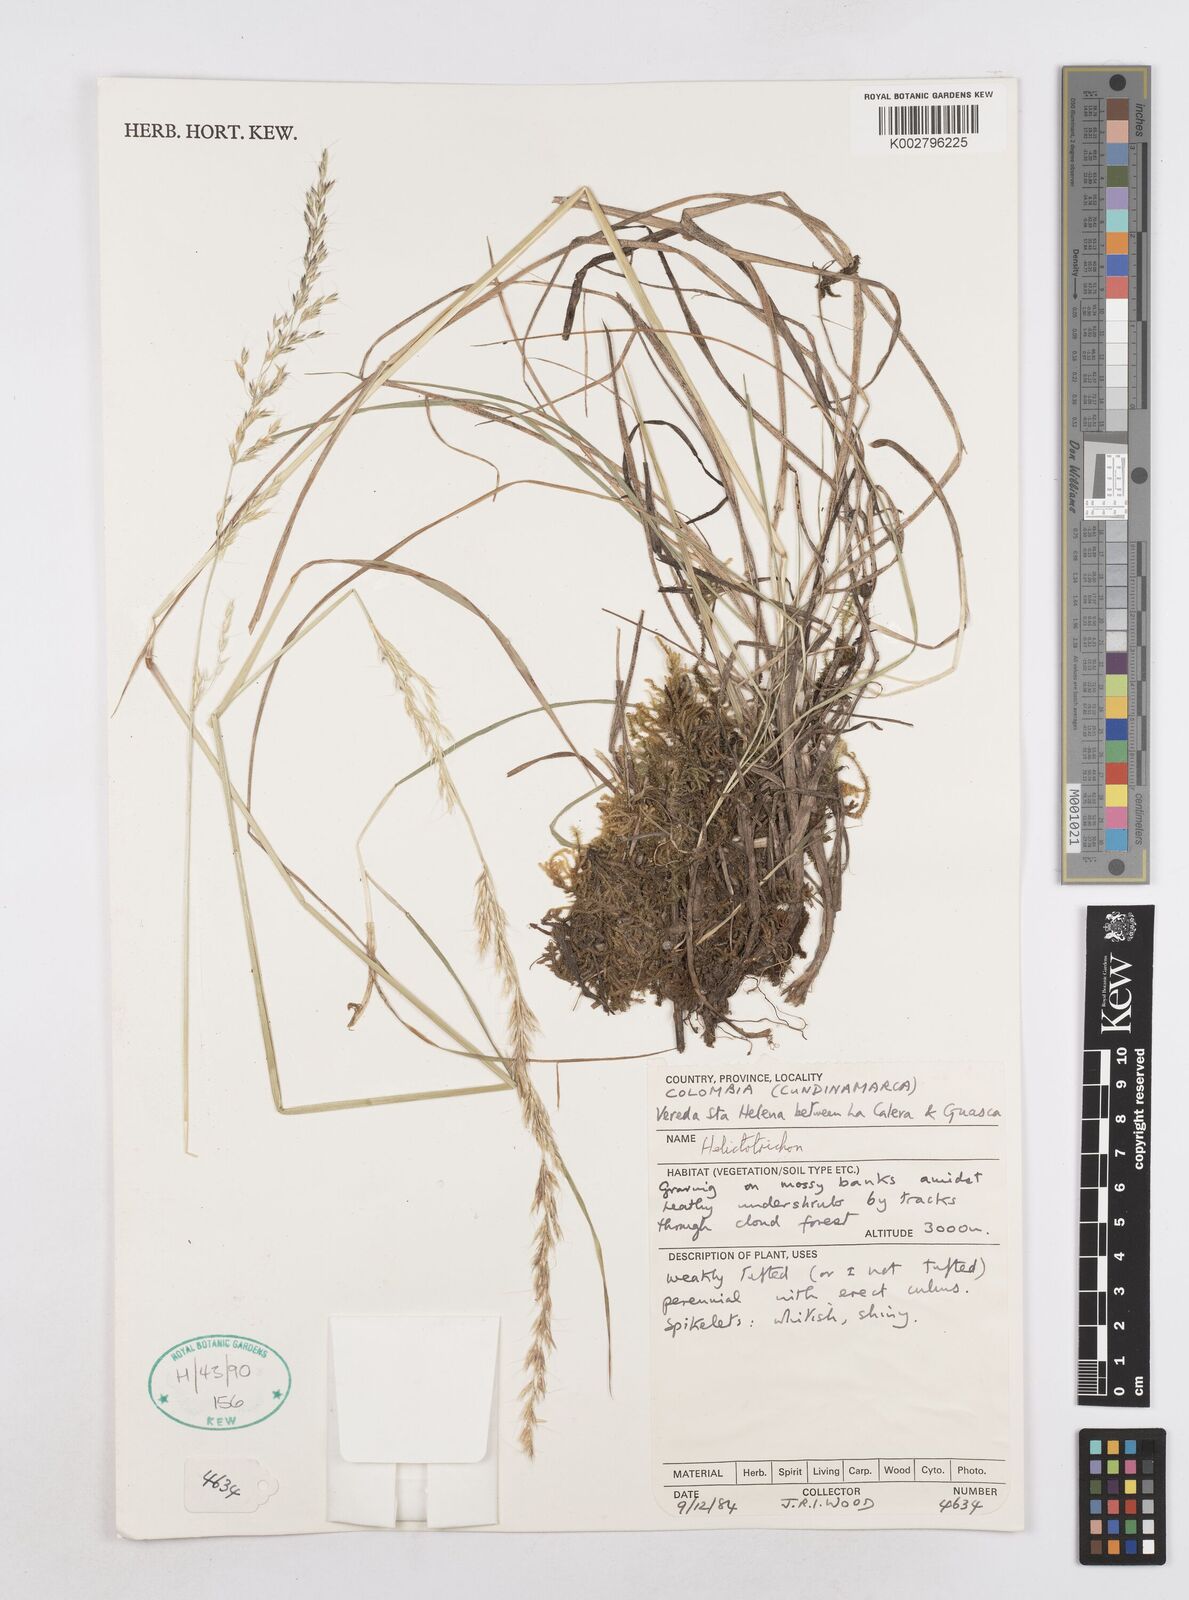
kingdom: Plantae
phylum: Tracheophyta
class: Liliopsida
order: Poales
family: Poaceae
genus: Helictotrichon
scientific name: Helictotrichon
